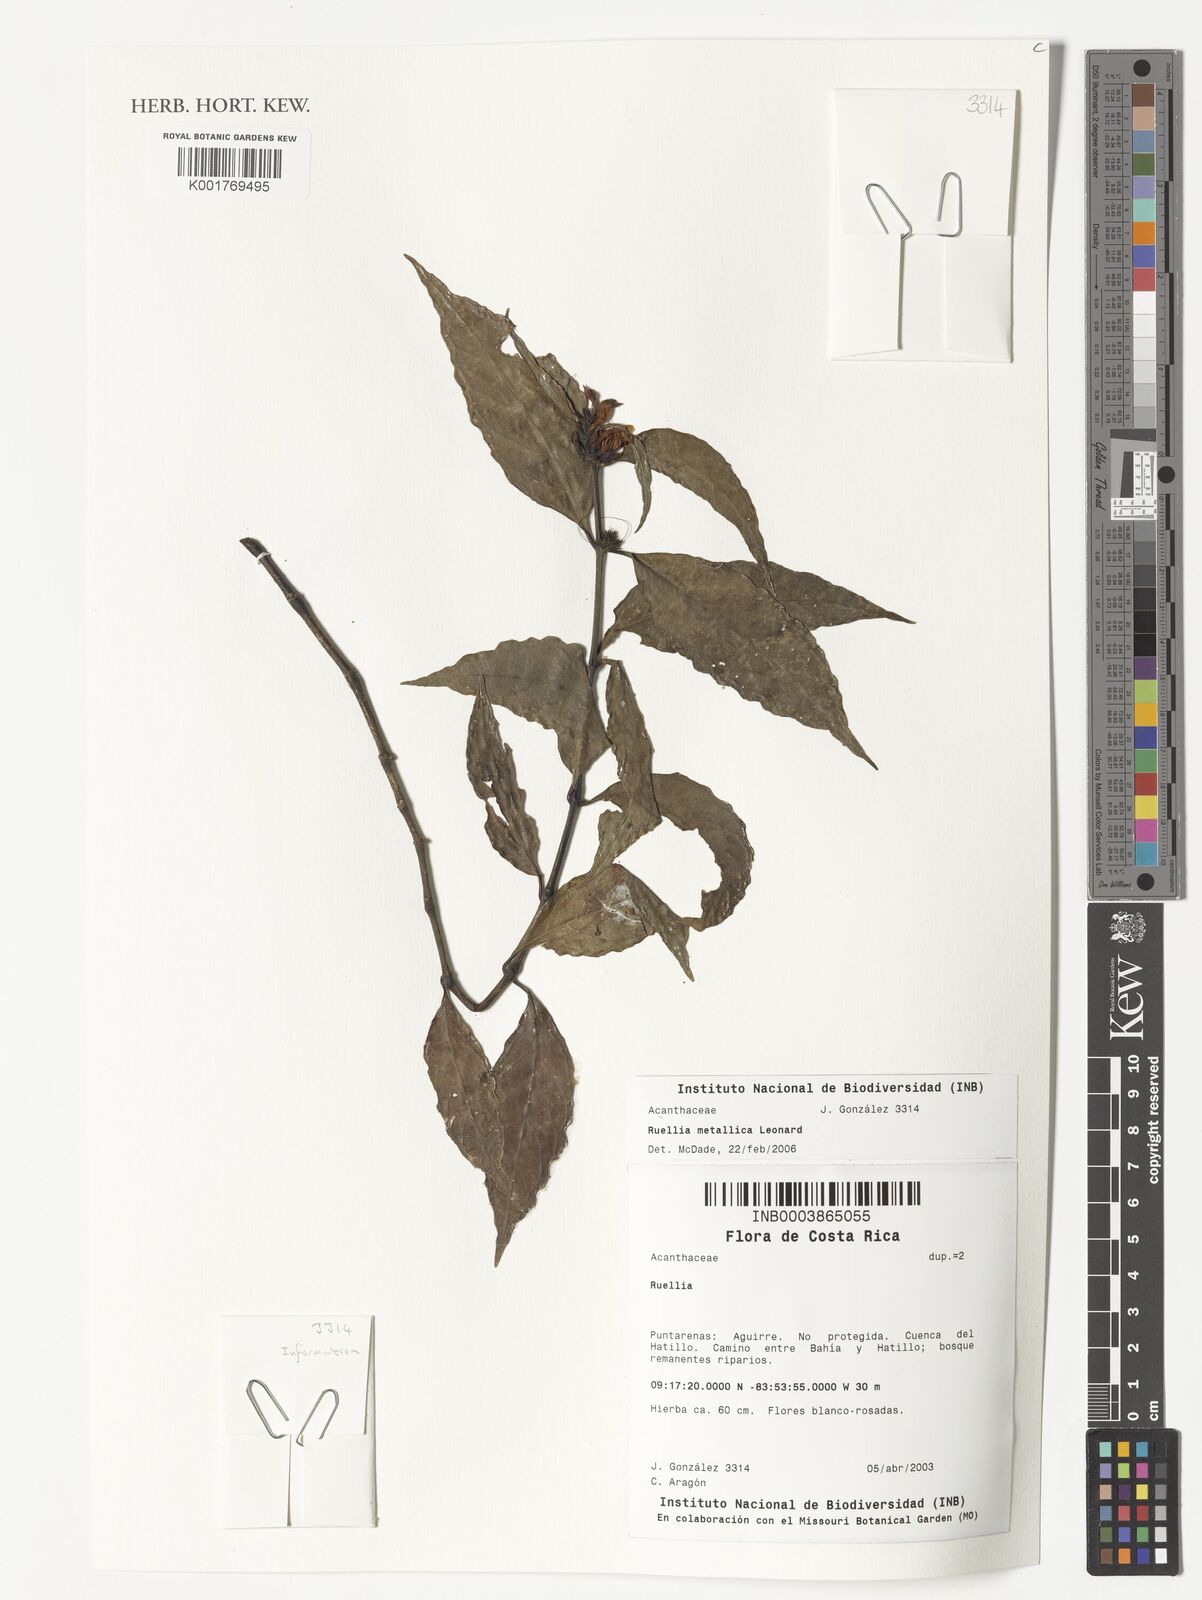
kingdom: Plantae
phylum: Tracheophyta
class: Magnoliopsida
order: Lamiales
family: Acanthaceae
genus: Ruellia
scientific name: Ruellia metallica
